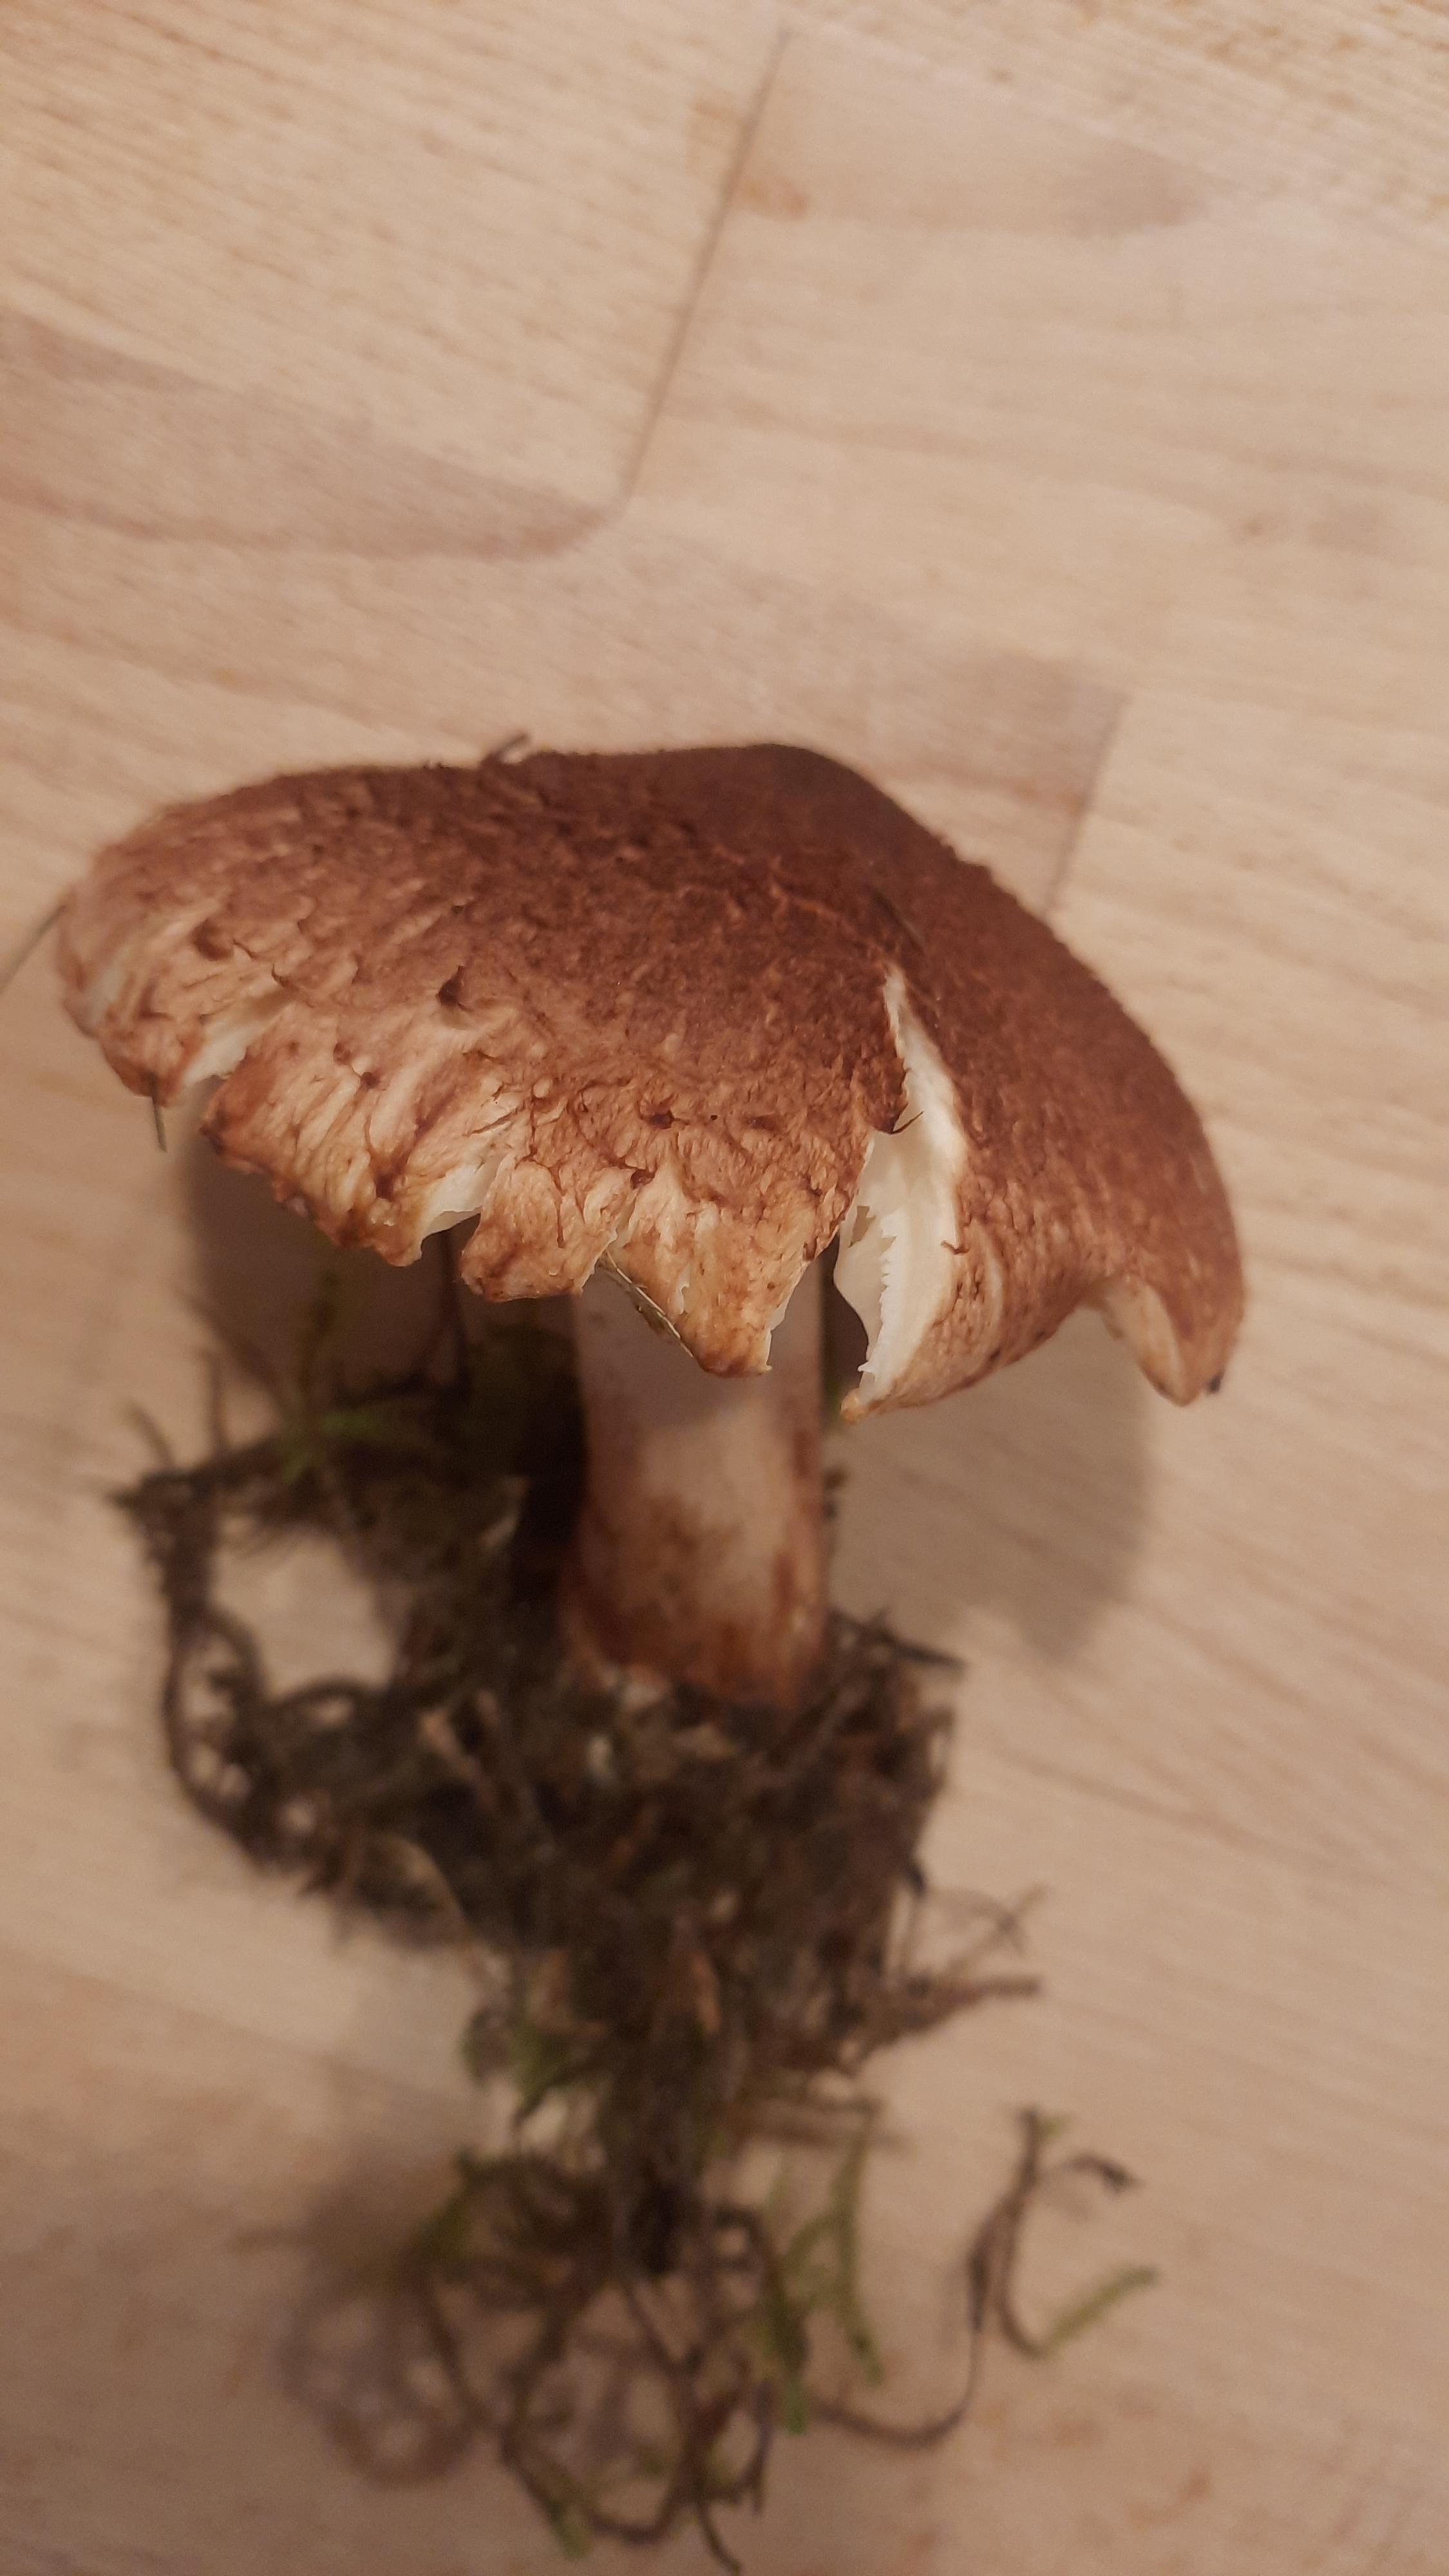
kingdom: Fungi
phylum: Basidiomycota
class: Agaricomycetes
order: Agaricales
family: Tricholomataceae
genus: Tricholoma
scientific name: Tricholoma vaccinum
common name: ko-ridderhat
